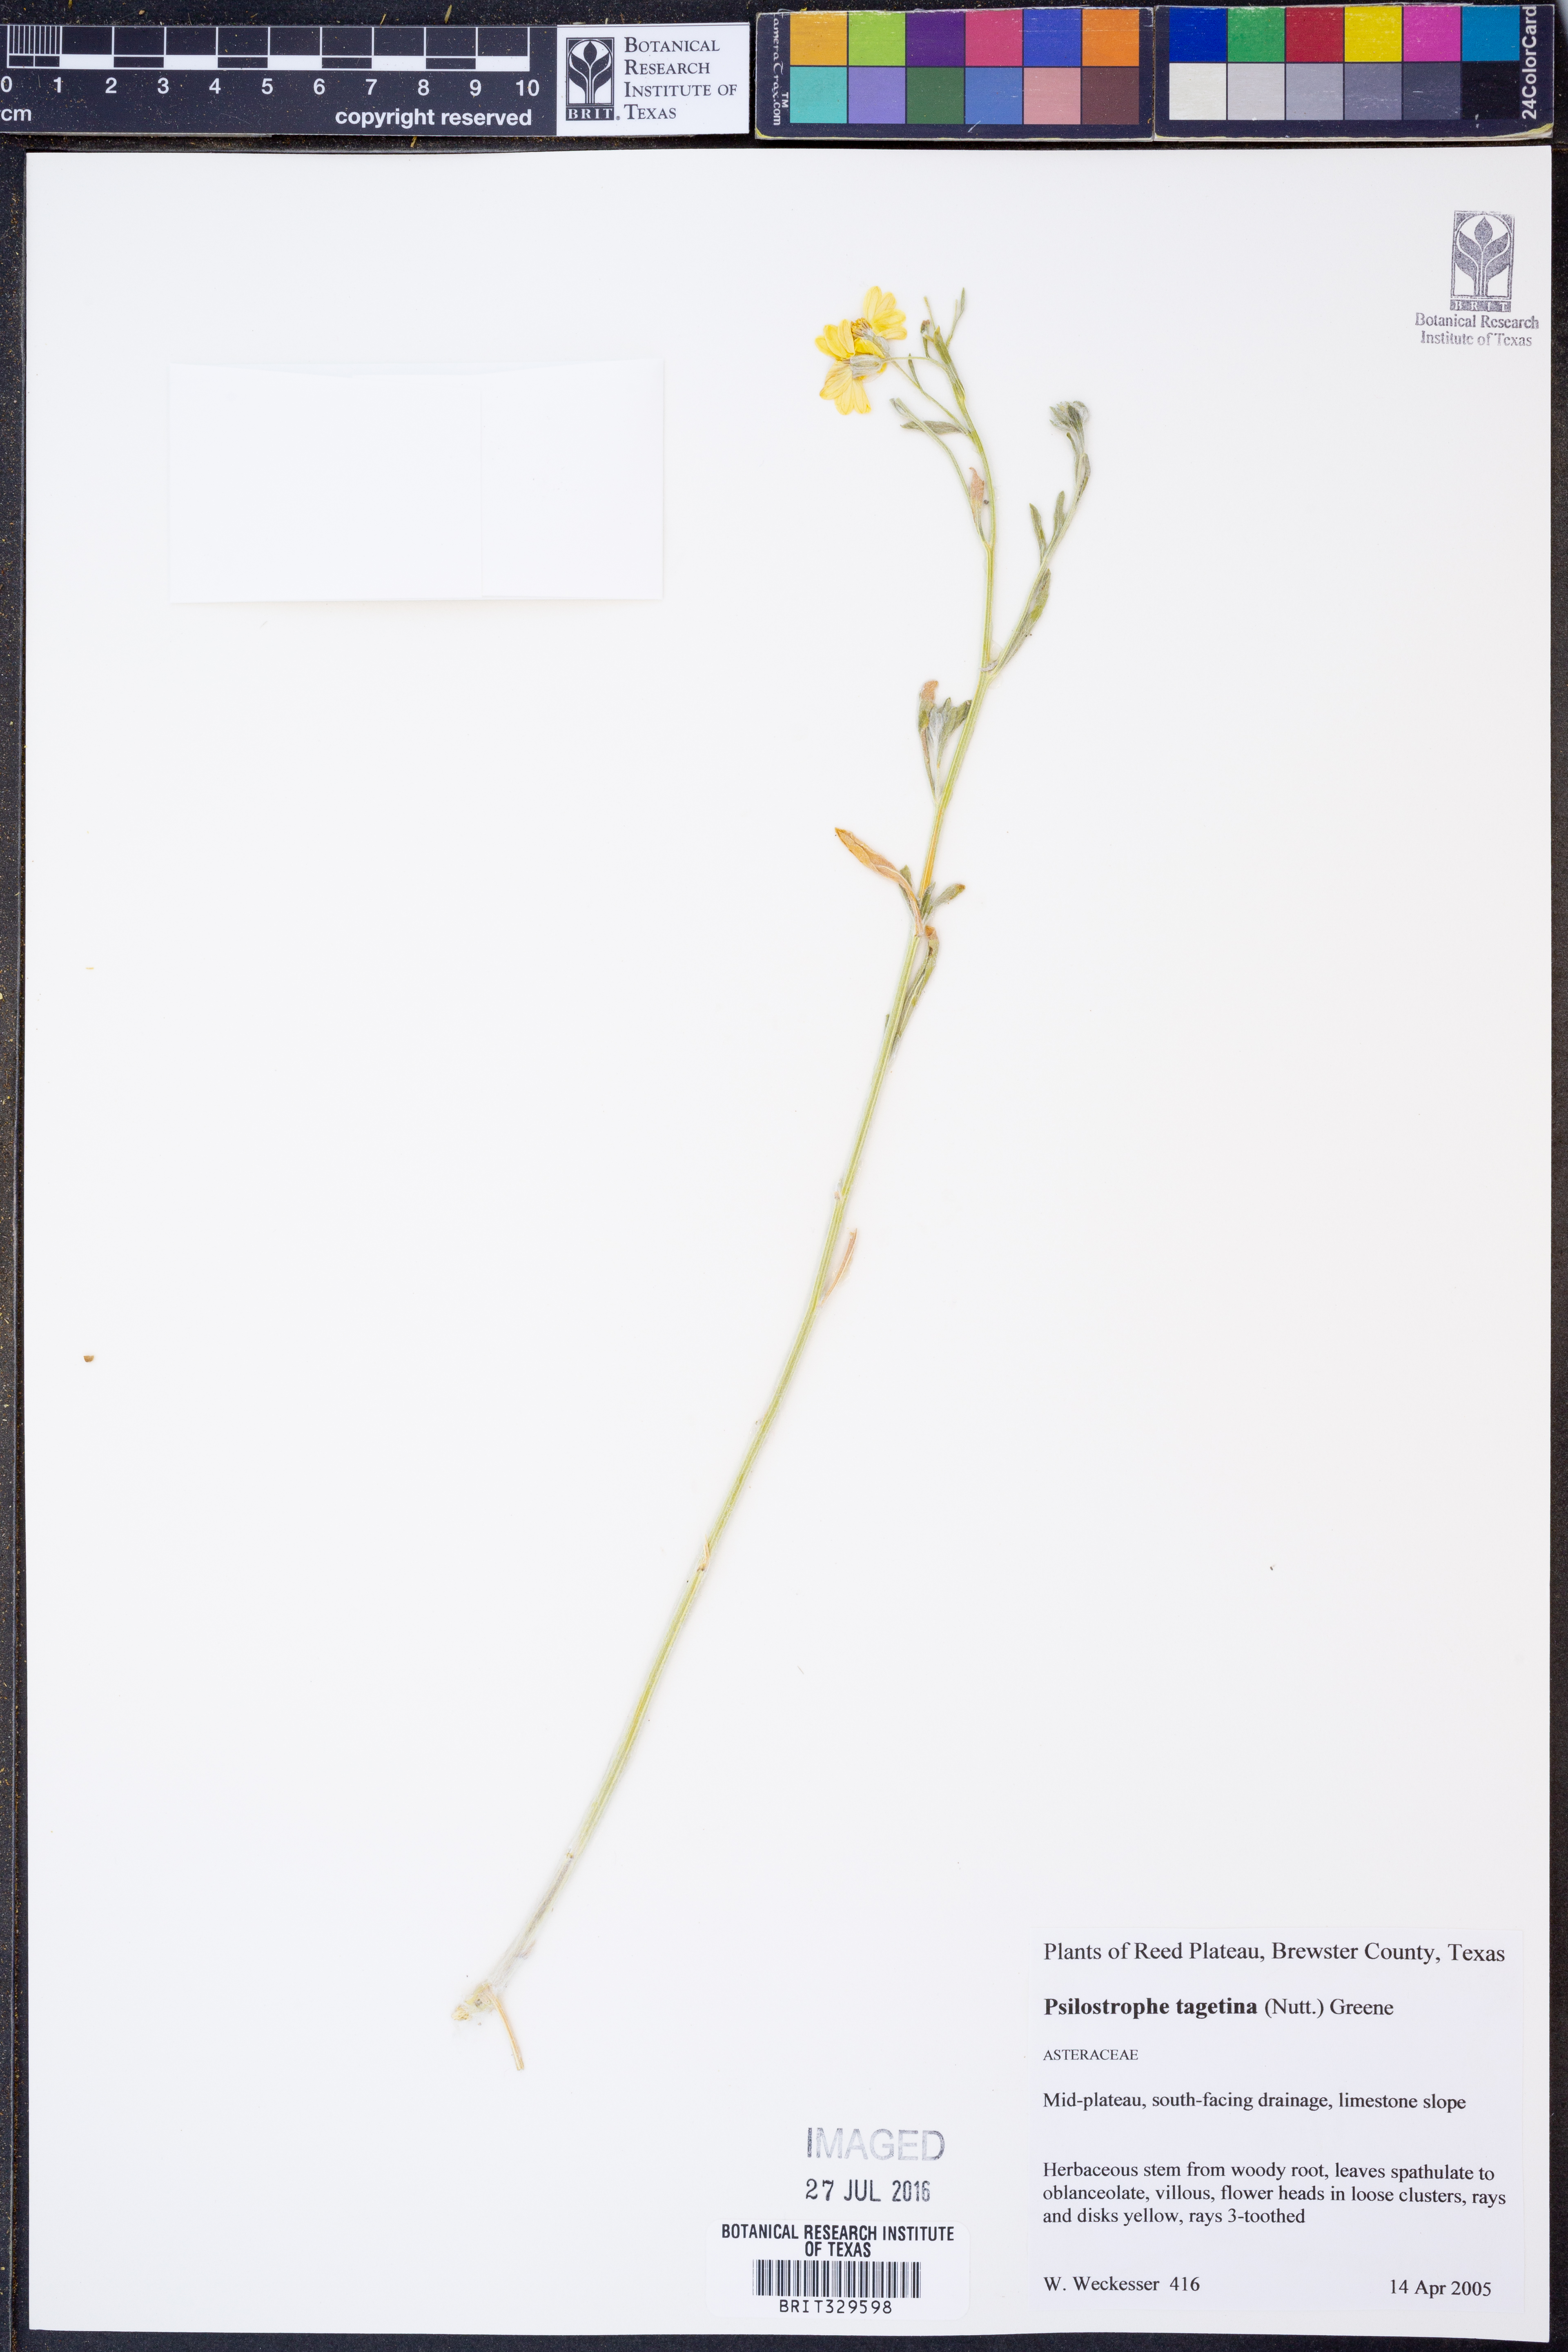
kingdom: Plantae
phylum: Tracheophyta
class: Magnoliopsida
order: Asterales
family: Asteraceae
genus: Psilostrophe
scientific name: Psilostrophe tagetina
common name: Marigold paper-flower
